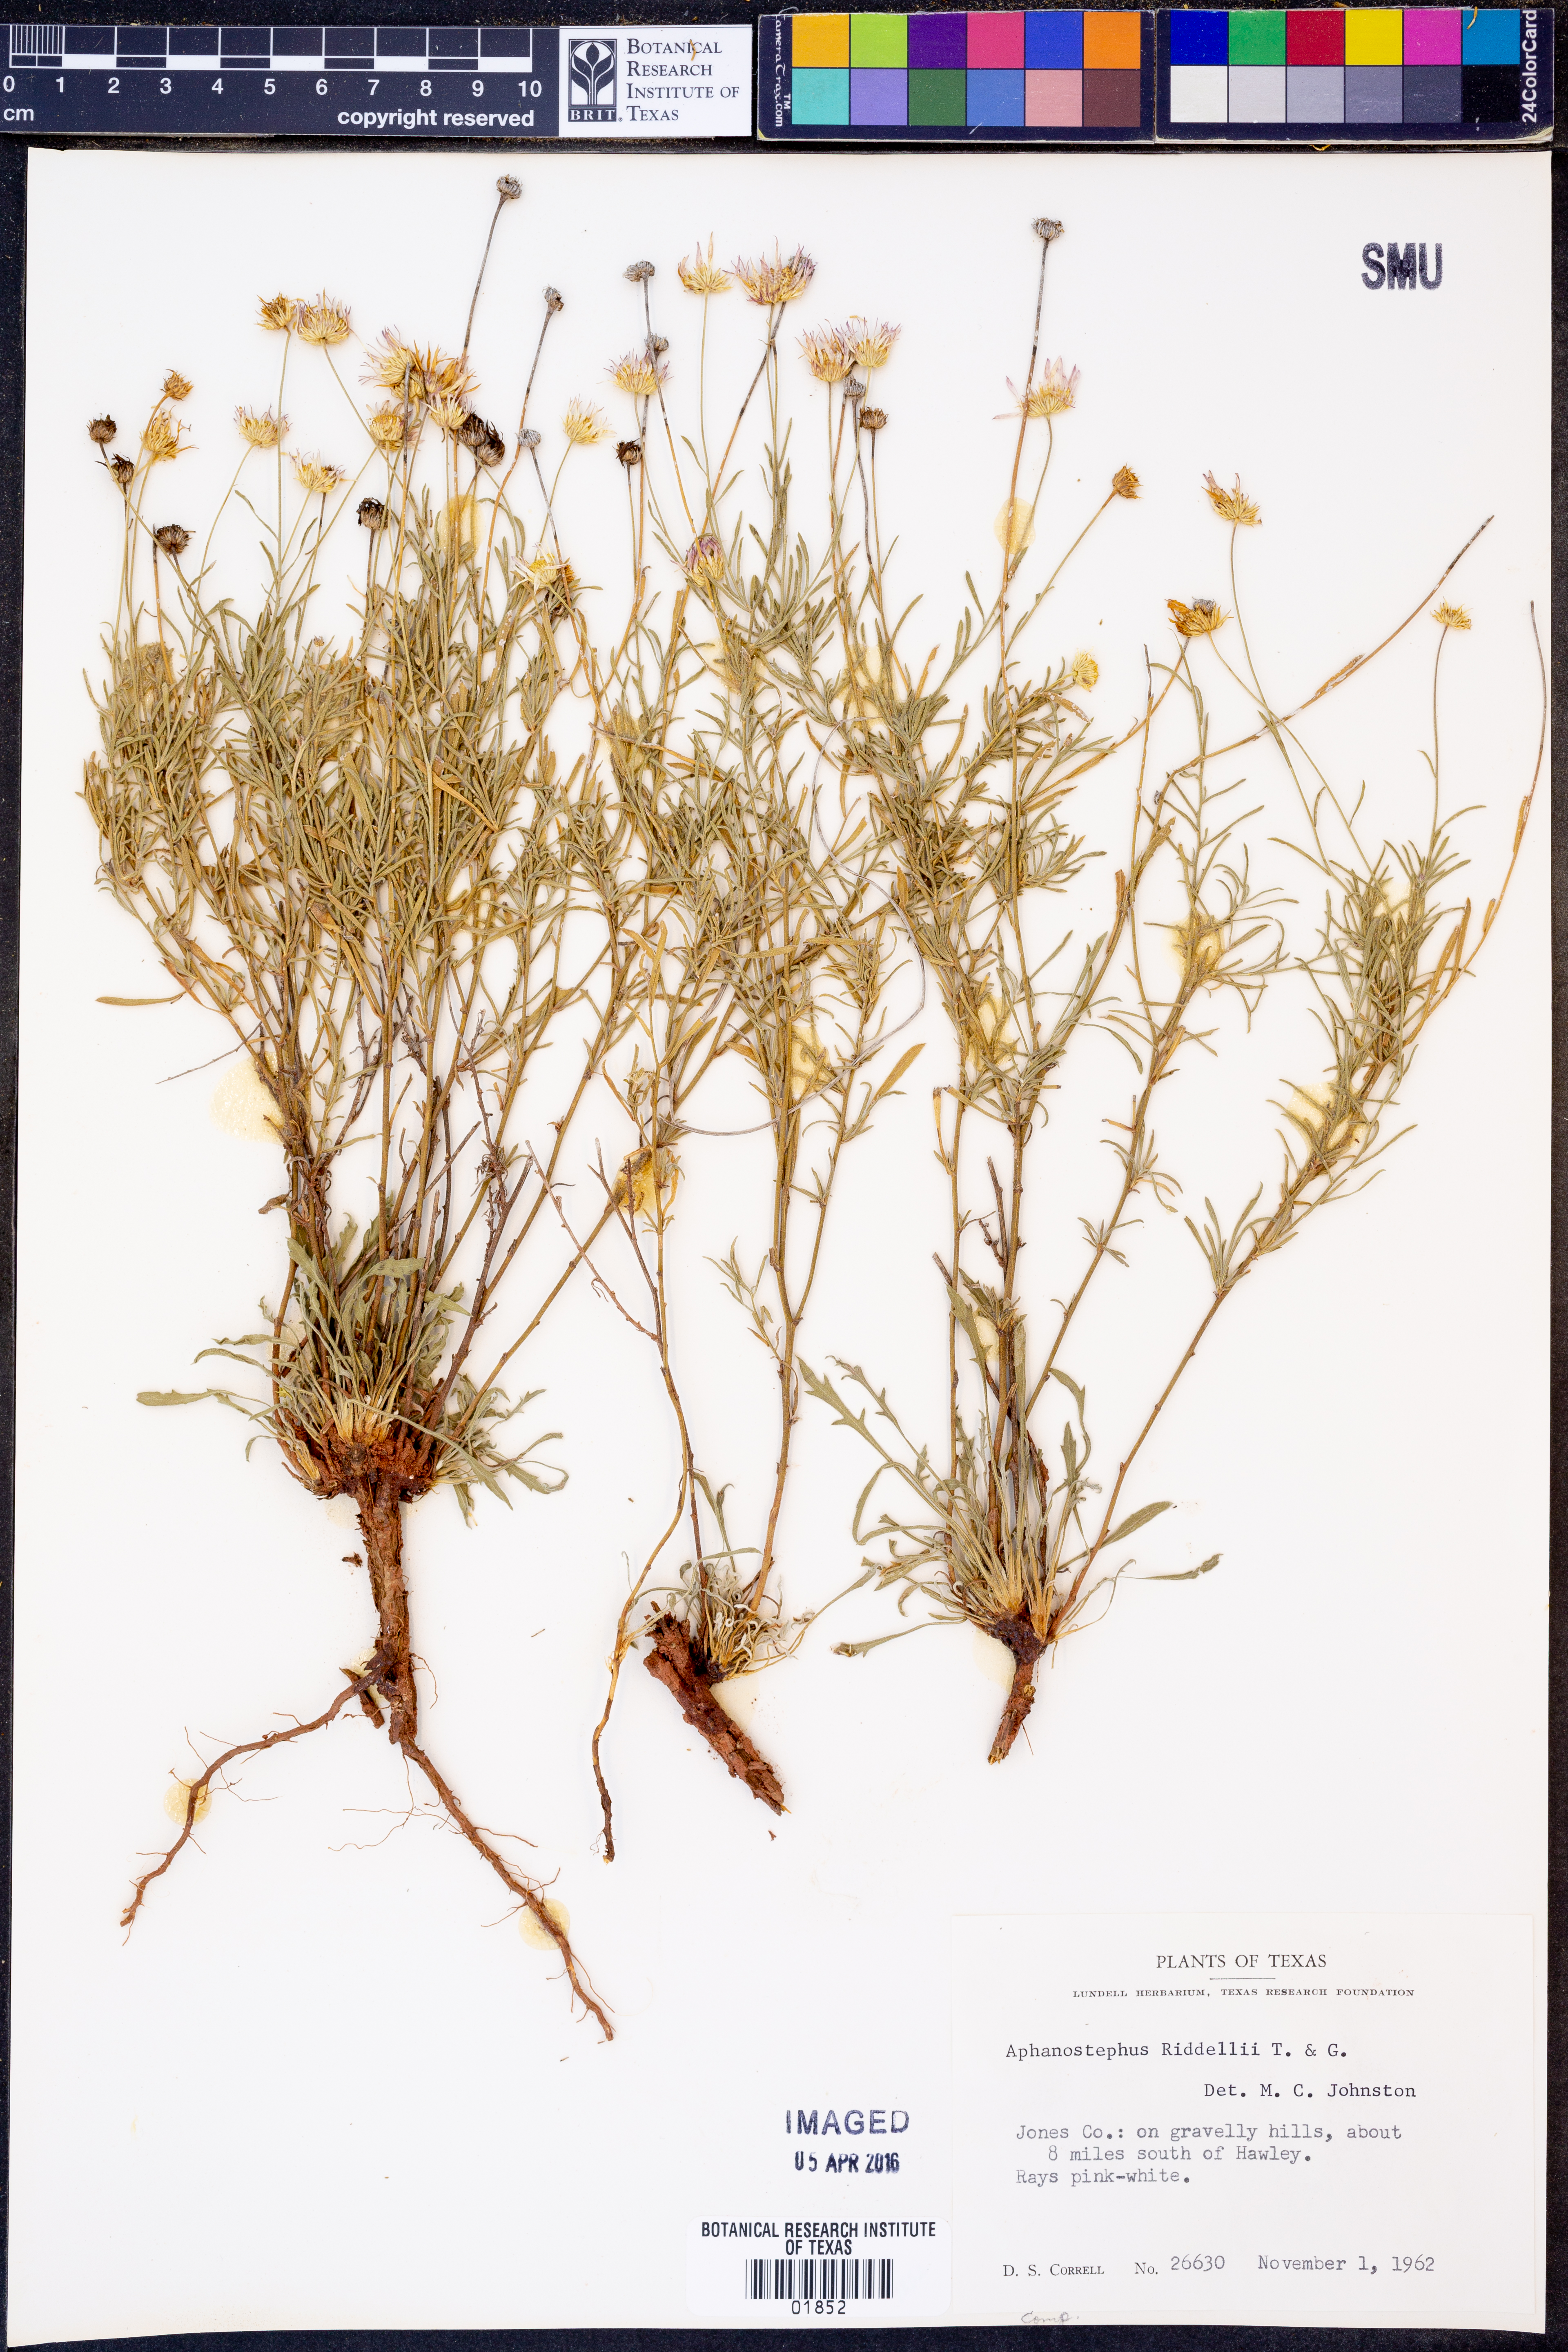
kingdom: Plantae
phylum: Tracheophyta
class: Magnoliopsida
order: Asterales
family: Asteraceae
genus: Aphanostephus
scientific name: Aphanostephus riddellii
